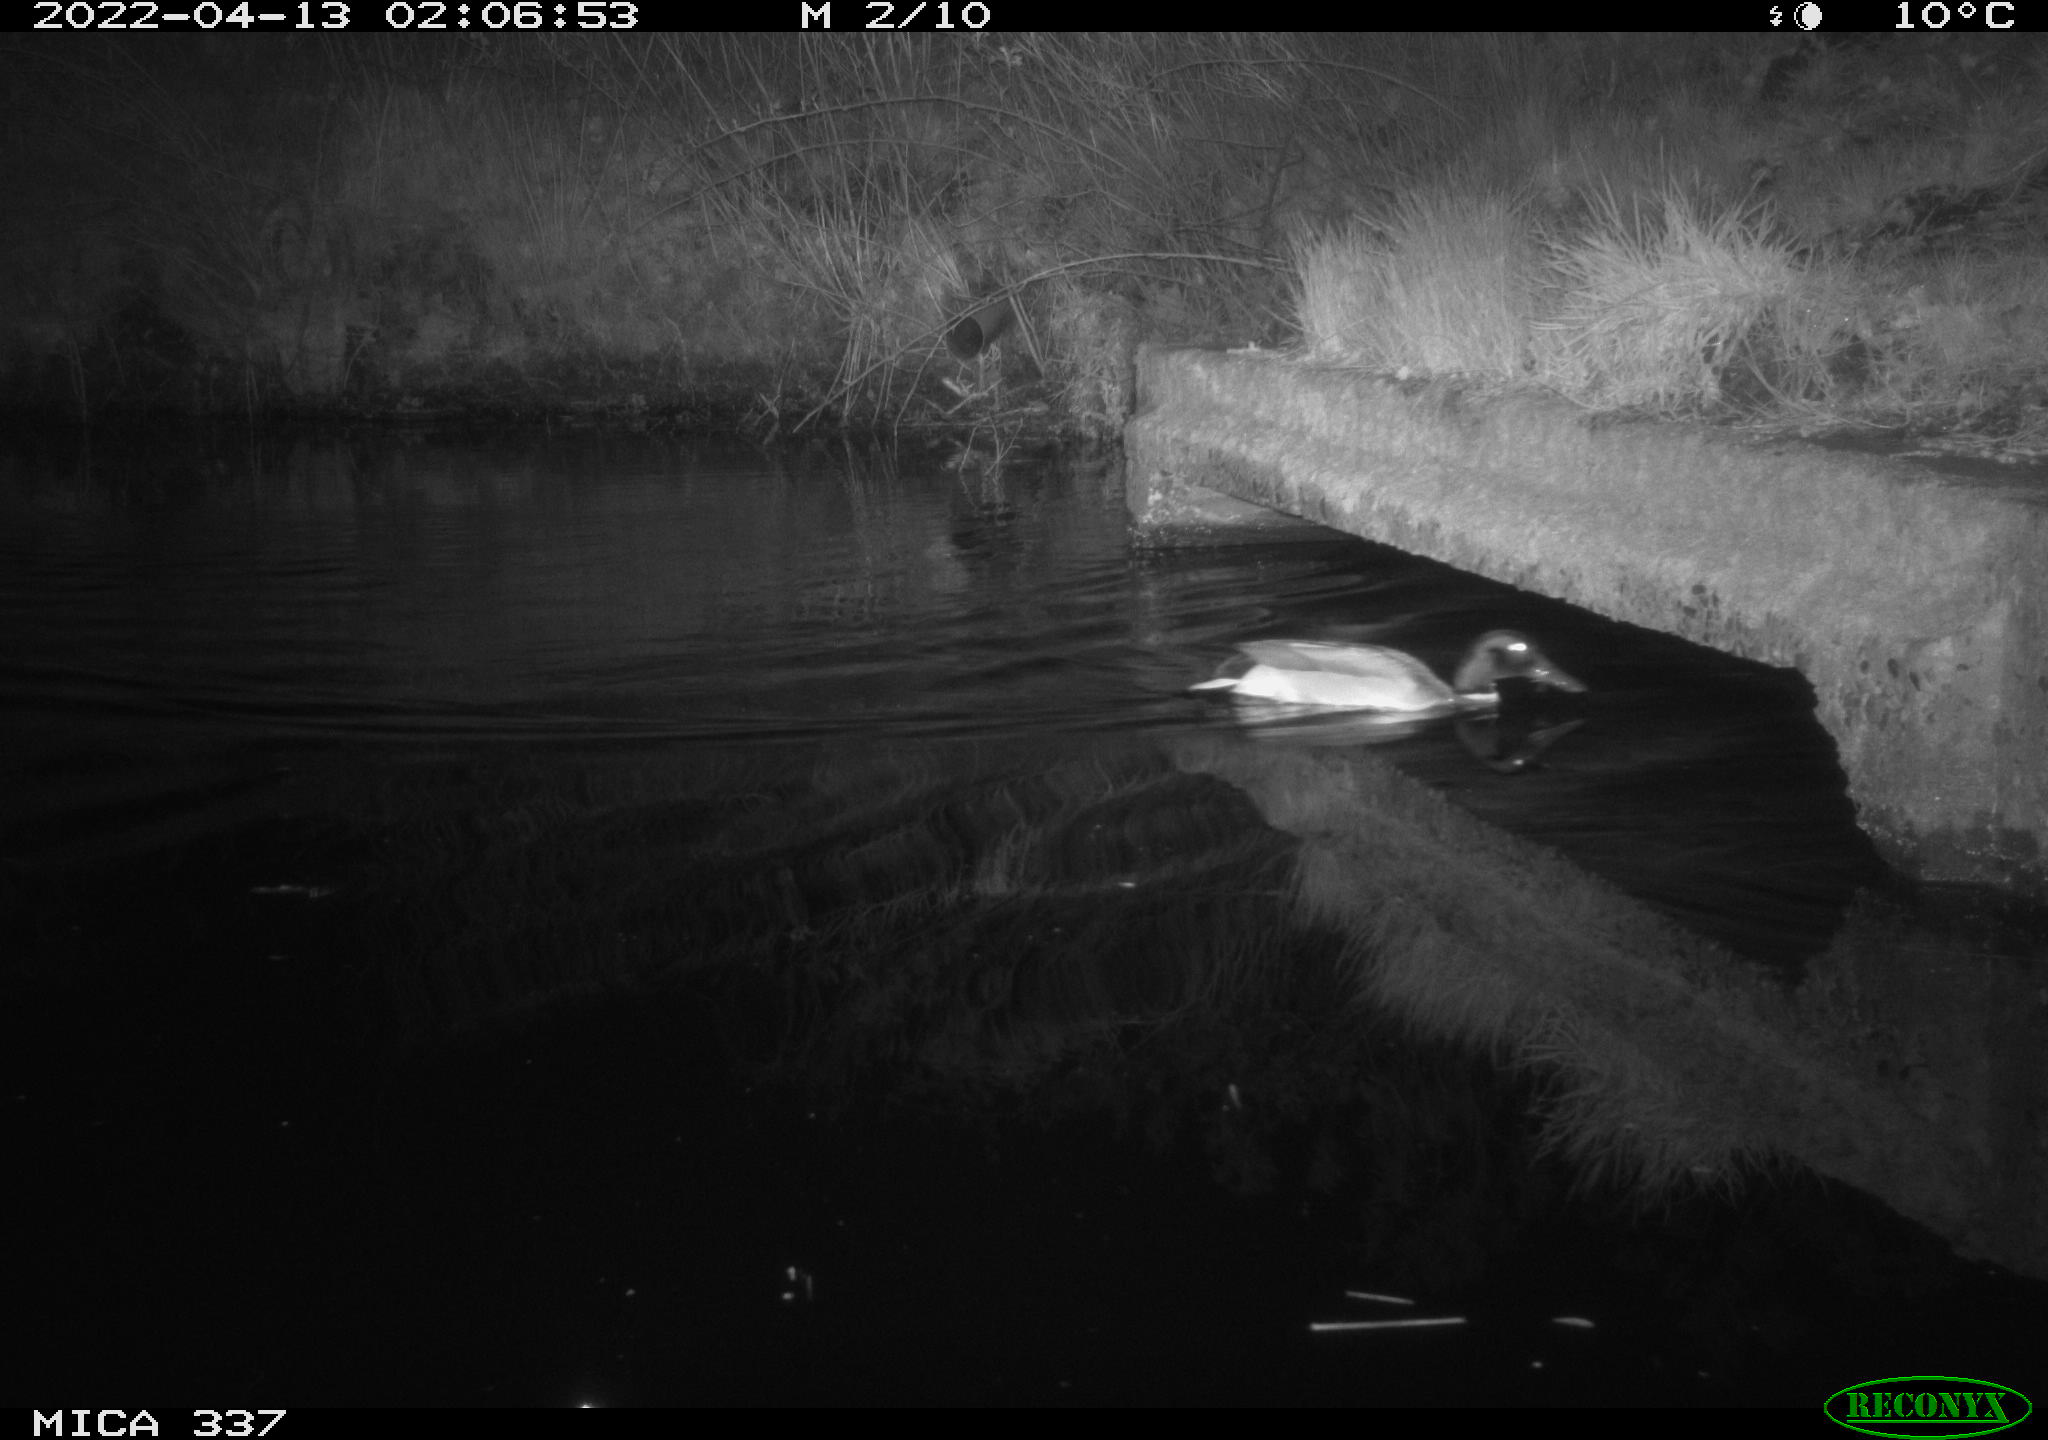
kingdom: Animalia
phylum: Chordata
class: Aves
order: Anseriformes
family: Anatidae
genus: Anas
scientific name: Anas platyrhynchos
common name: Mallard
